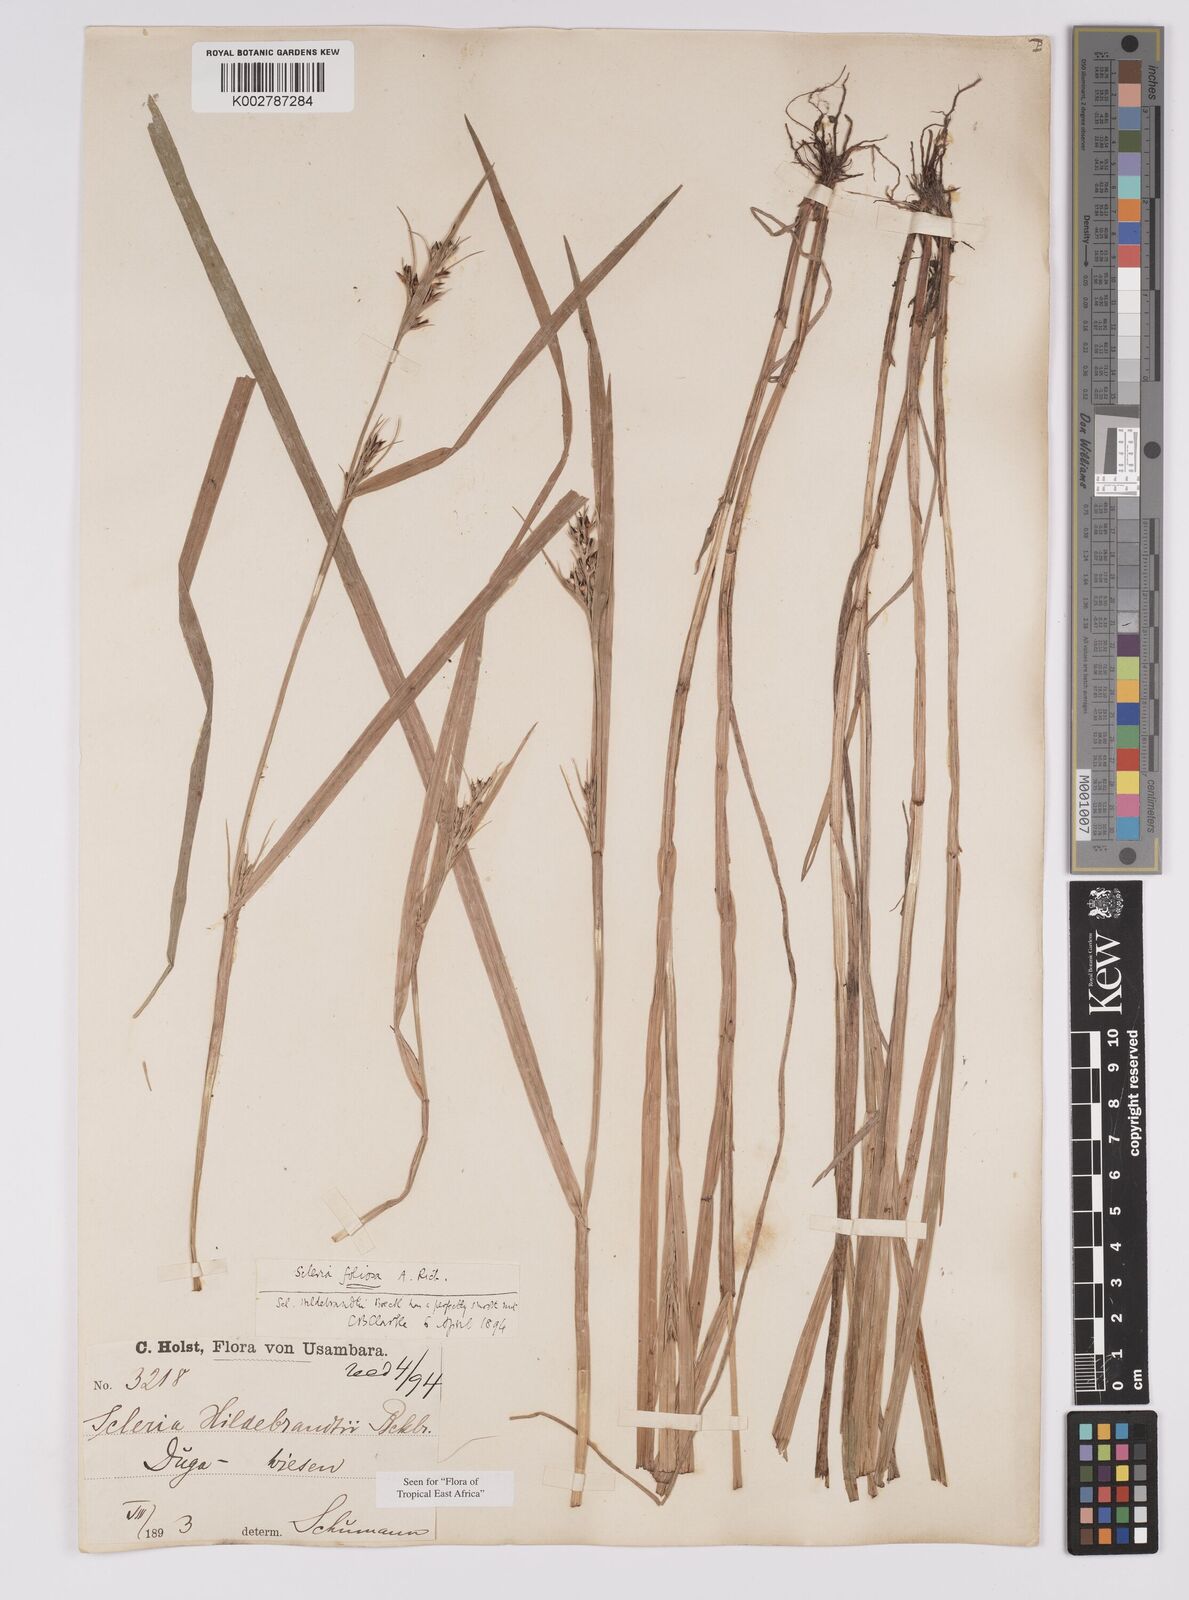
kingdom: Plantae
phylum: Tracheophyta
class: Liliopsida
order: Poales
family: Cyperaceae
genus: Scleria
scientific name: Scleria foliosa
